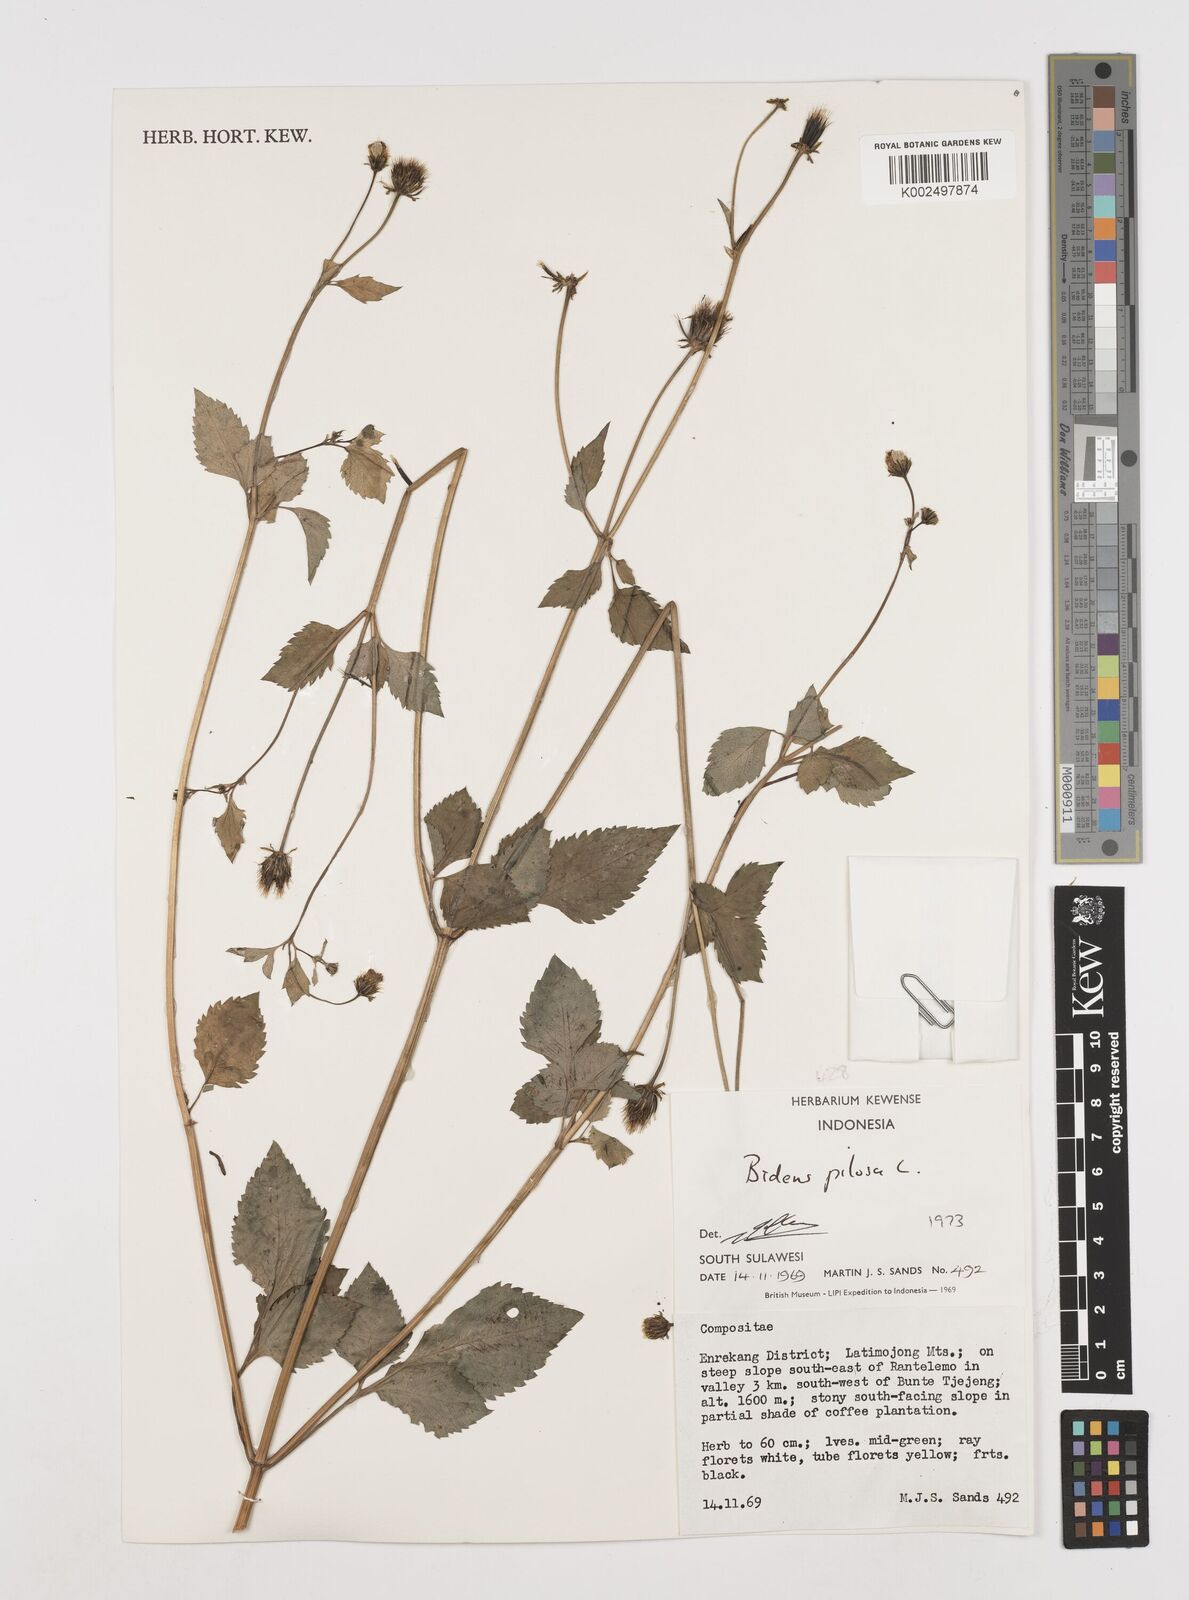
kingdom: Plantae
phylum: Tracheophyta
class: Magnoliopsida
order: Asterales
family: Asteraceae
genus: Bidens
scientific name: Bidens pilosa
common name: Black-jack
